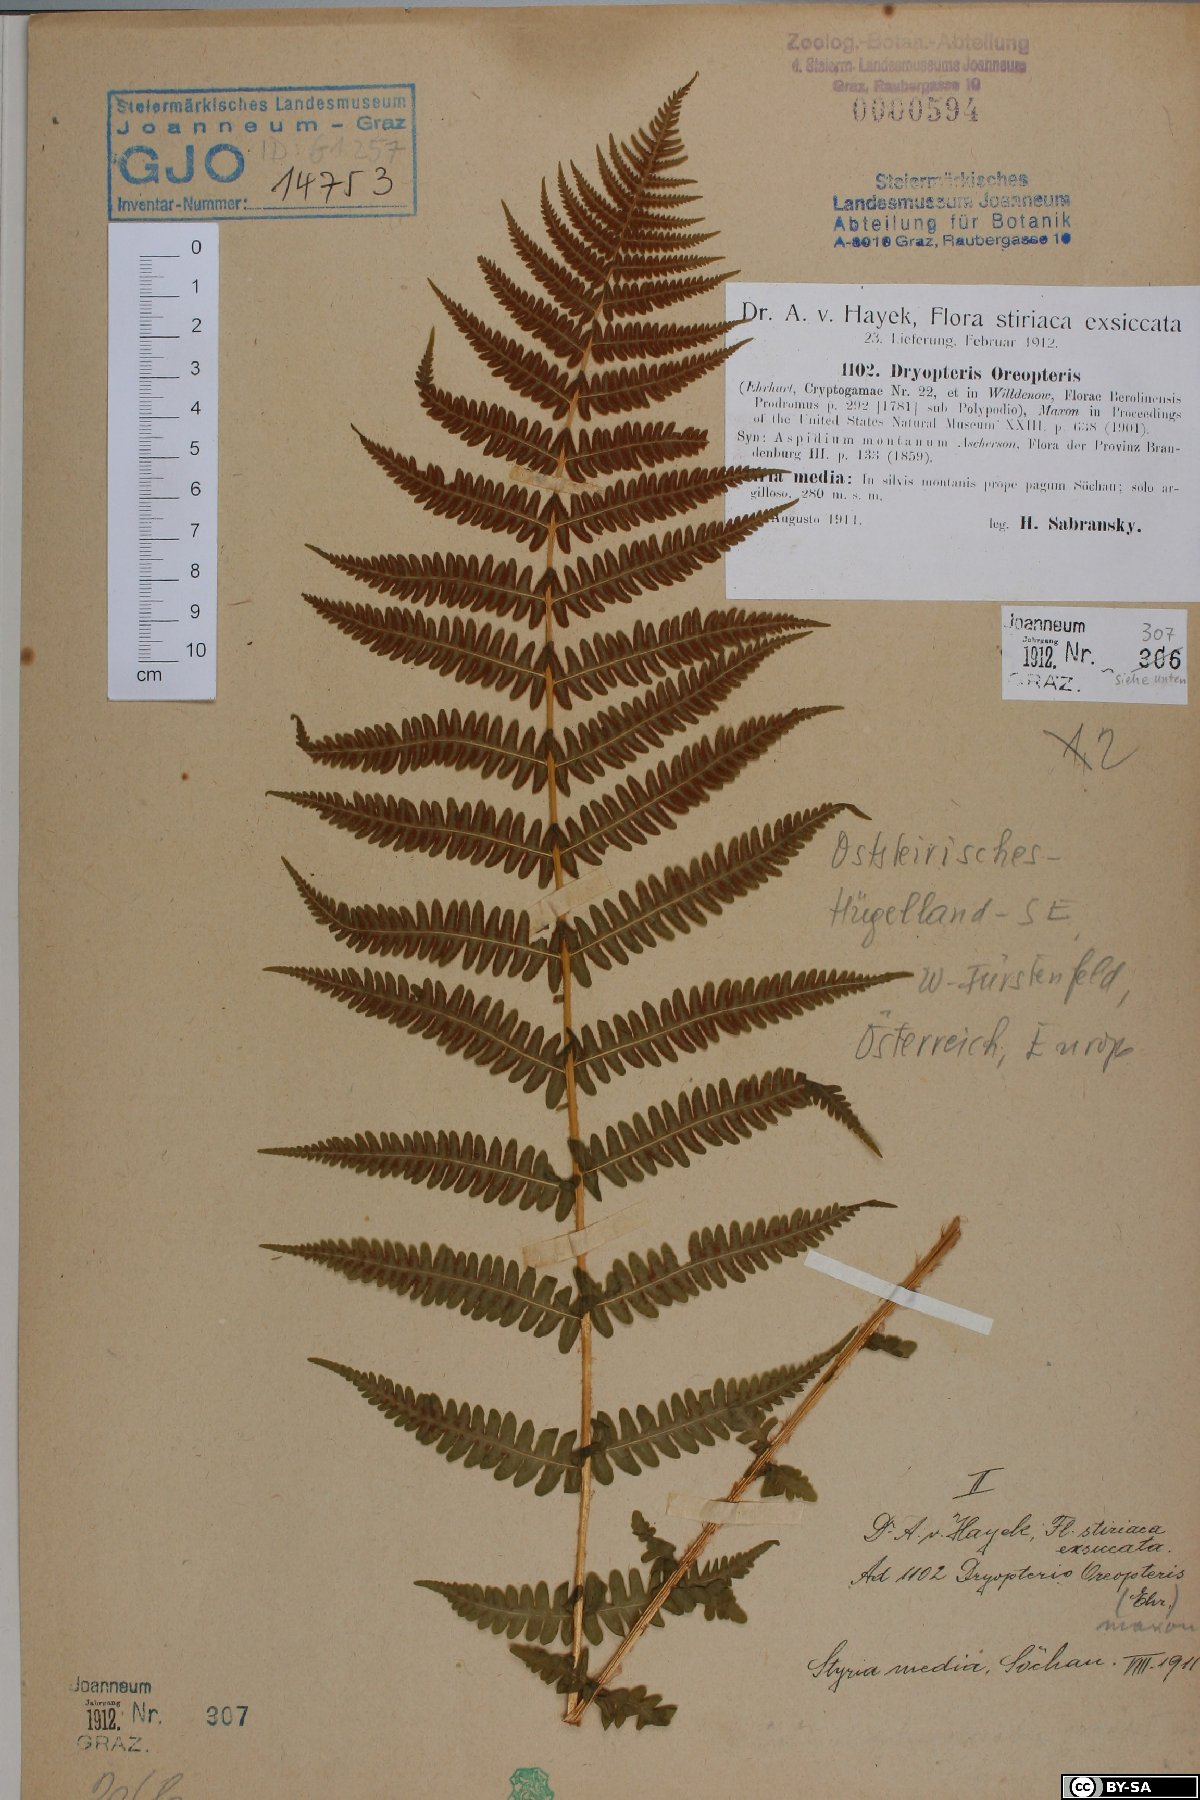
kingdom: Plantae
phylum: Tracheophyta
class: Polypodiopsida
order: Polypodiales
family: Thelypteridaceae
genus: Oreopteris
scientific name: Oreopteris limbosperma
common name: Lemon-scented fern
